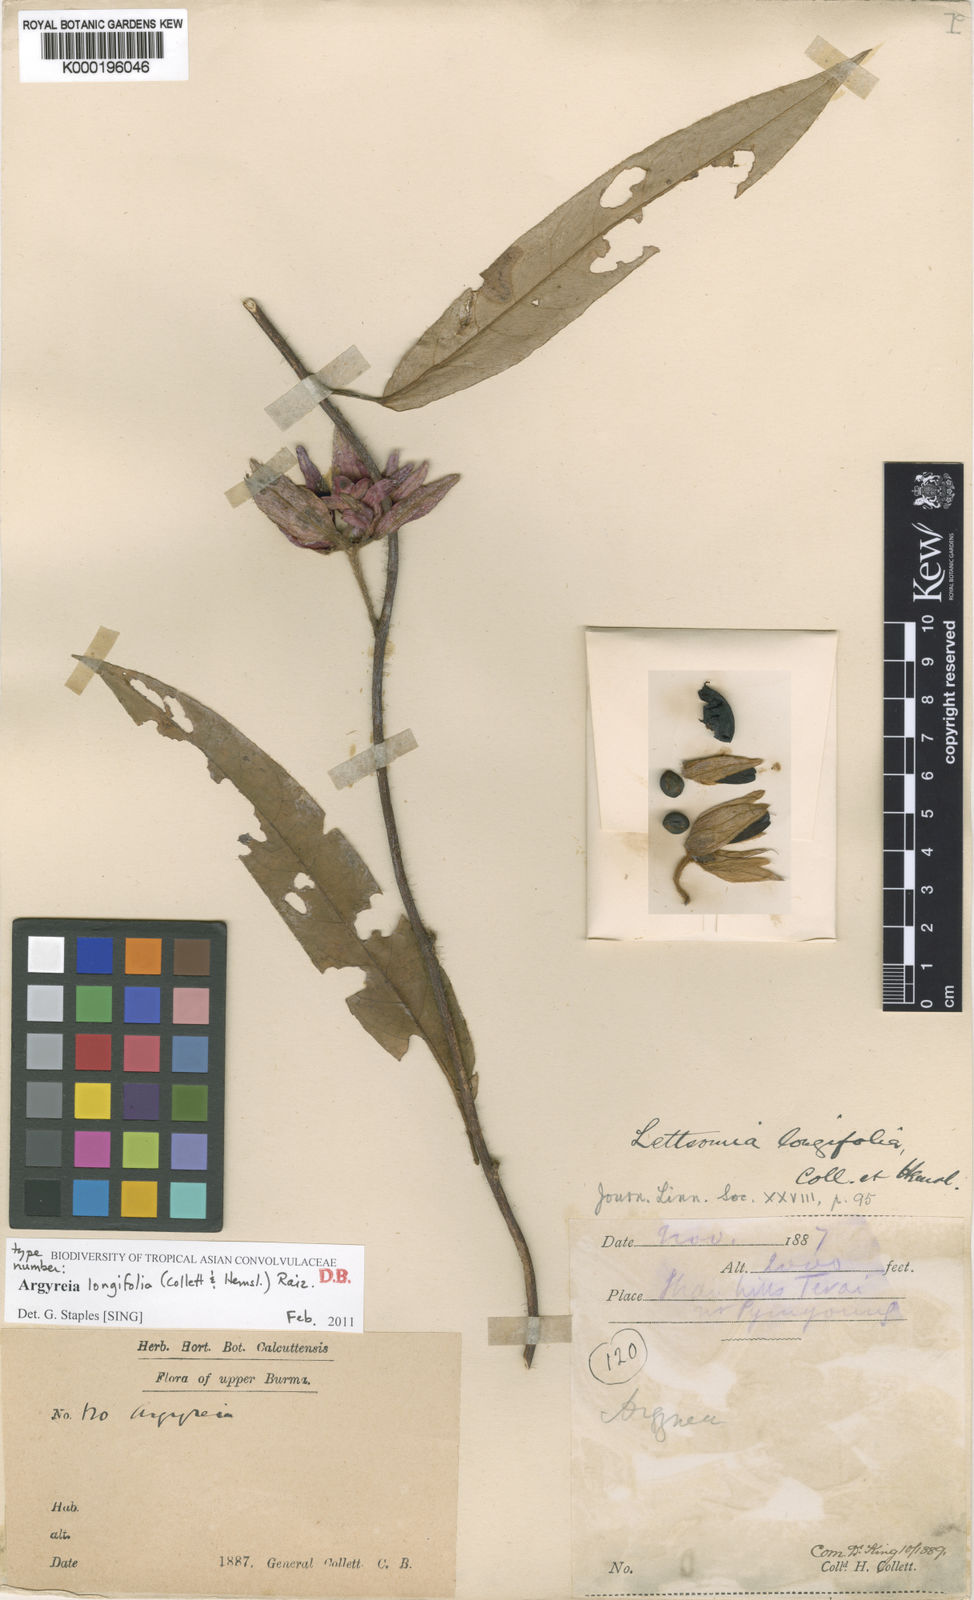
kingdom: Plantae
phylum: Tracheophyta
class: Magnoliopsida
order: Solanales
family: Convolvulaceae
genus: Argyreia
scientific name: Argyreia longifolia
